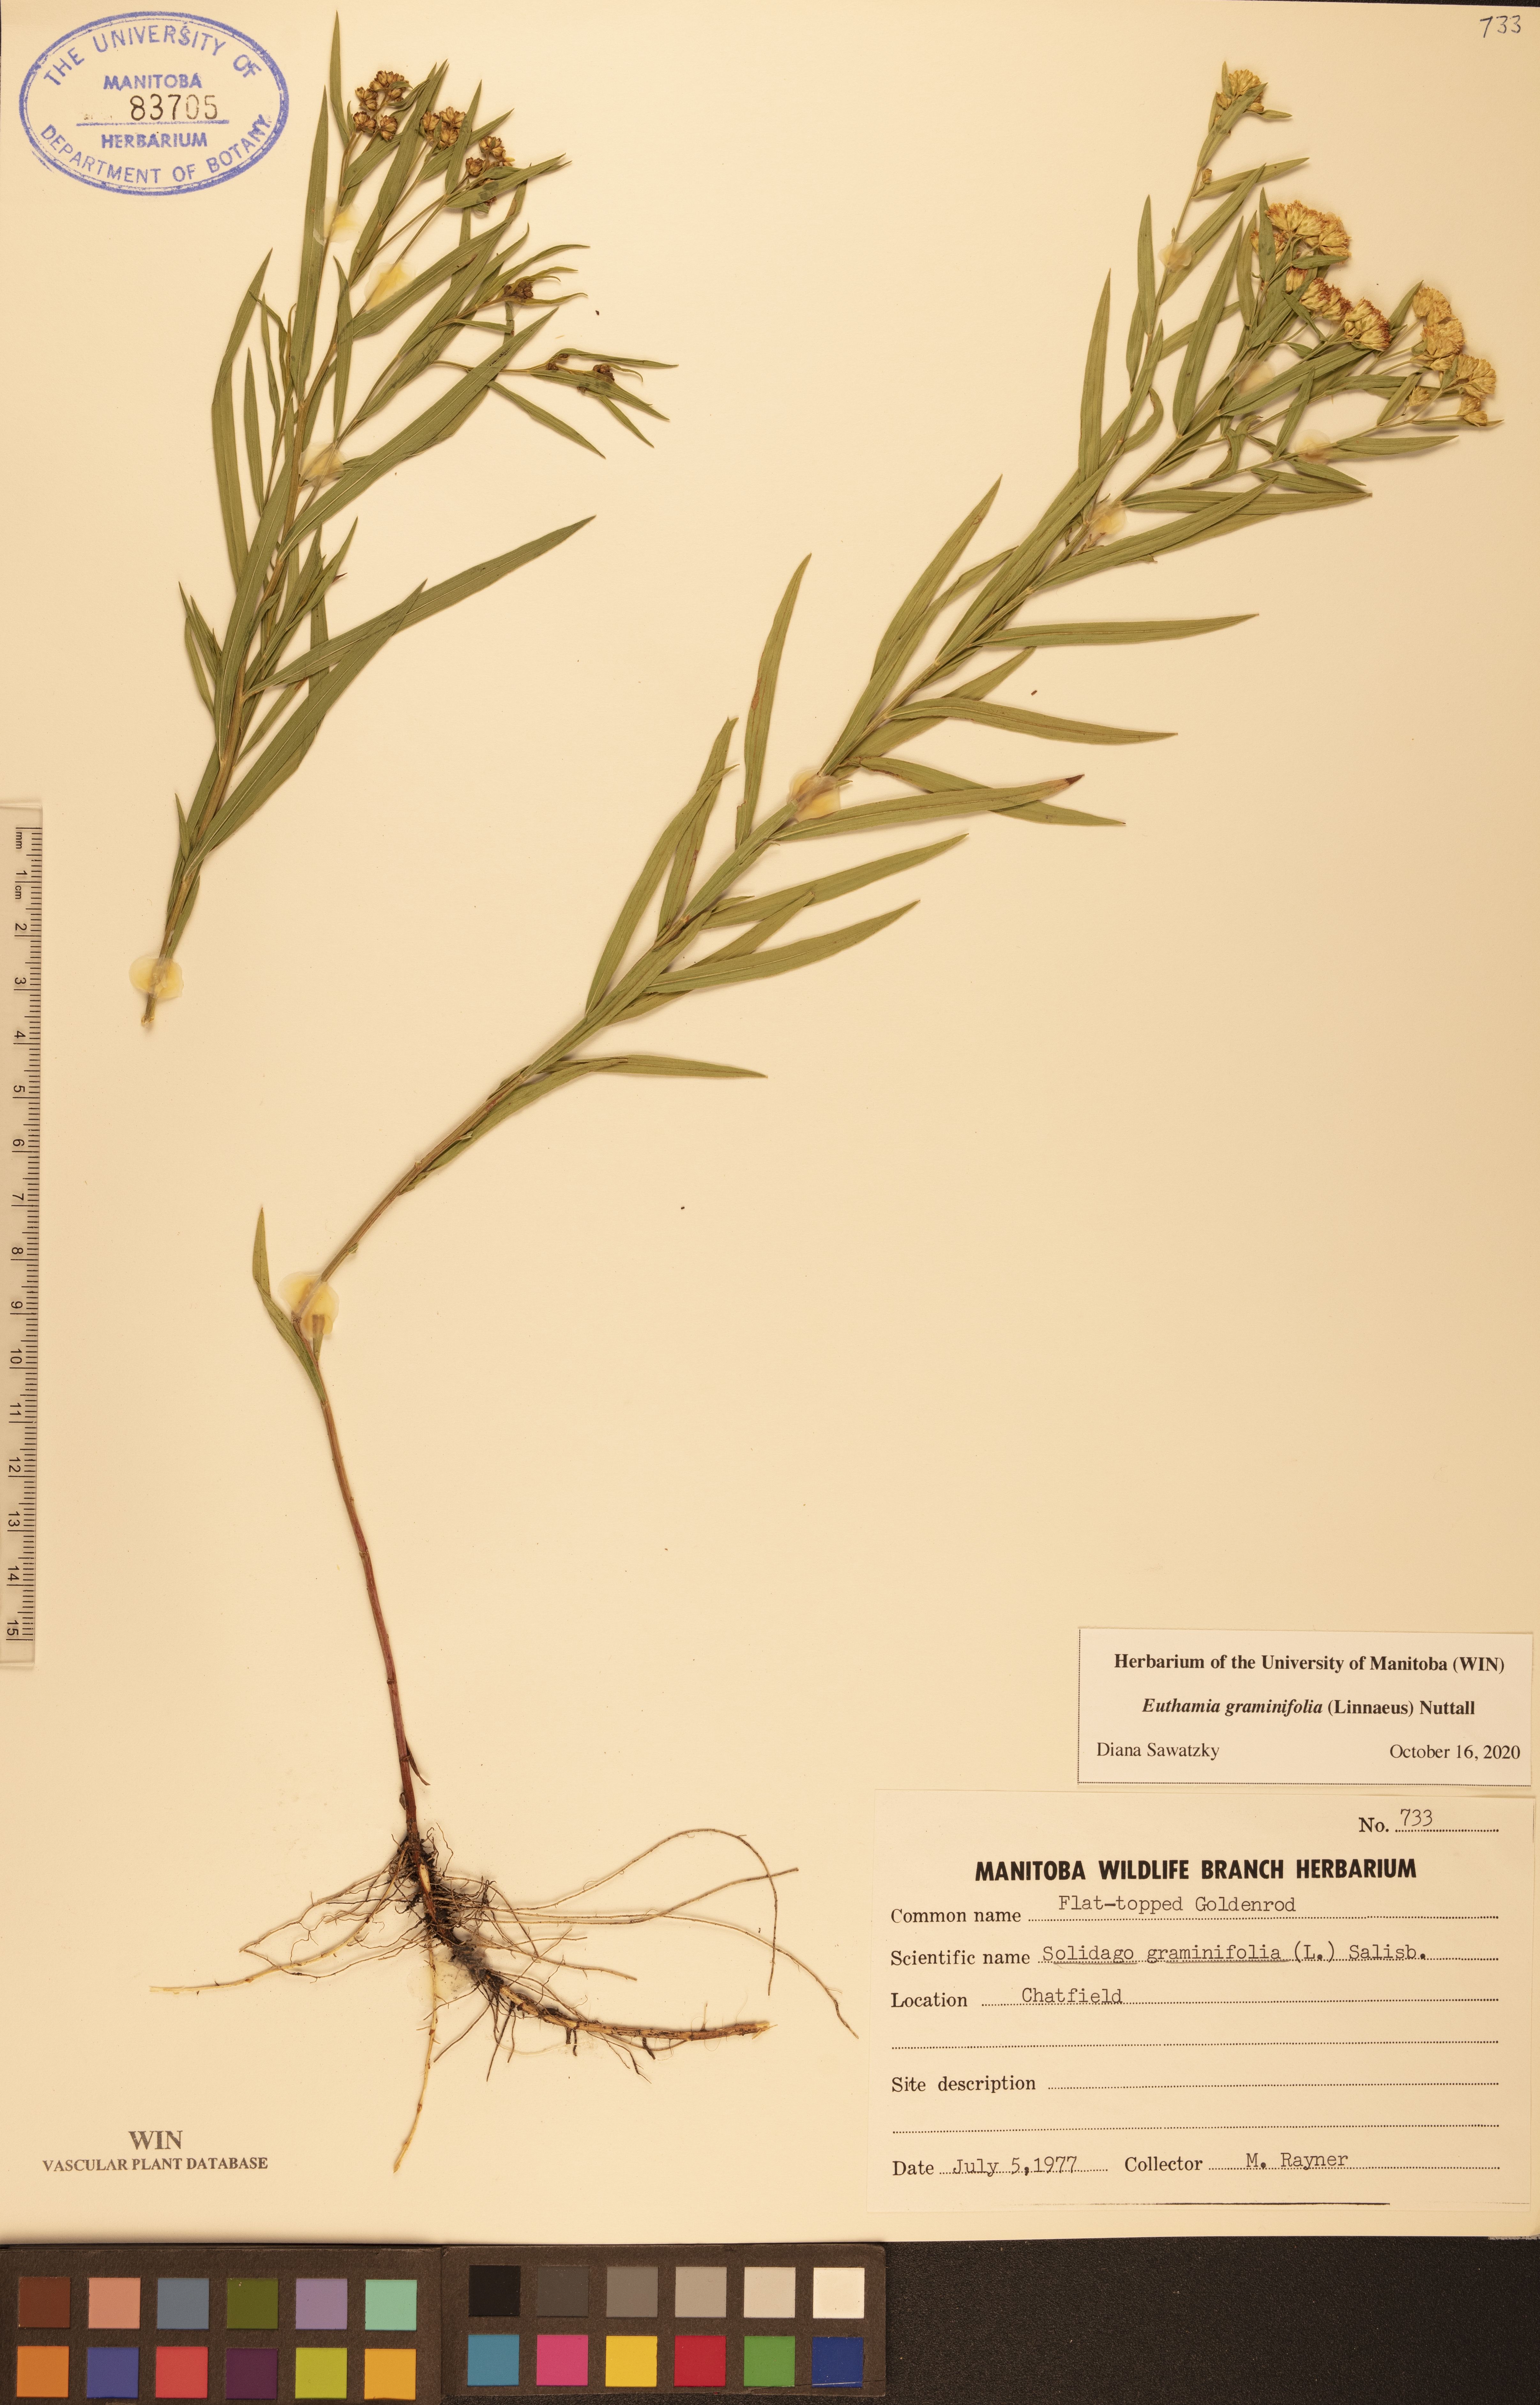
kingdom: Plantae
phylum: Tracheophyta
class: Magnoliopsida
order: Asterales
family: Asteraceae
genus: Euthamia
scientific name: Euthamia graminifolia
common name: Common goldentop
